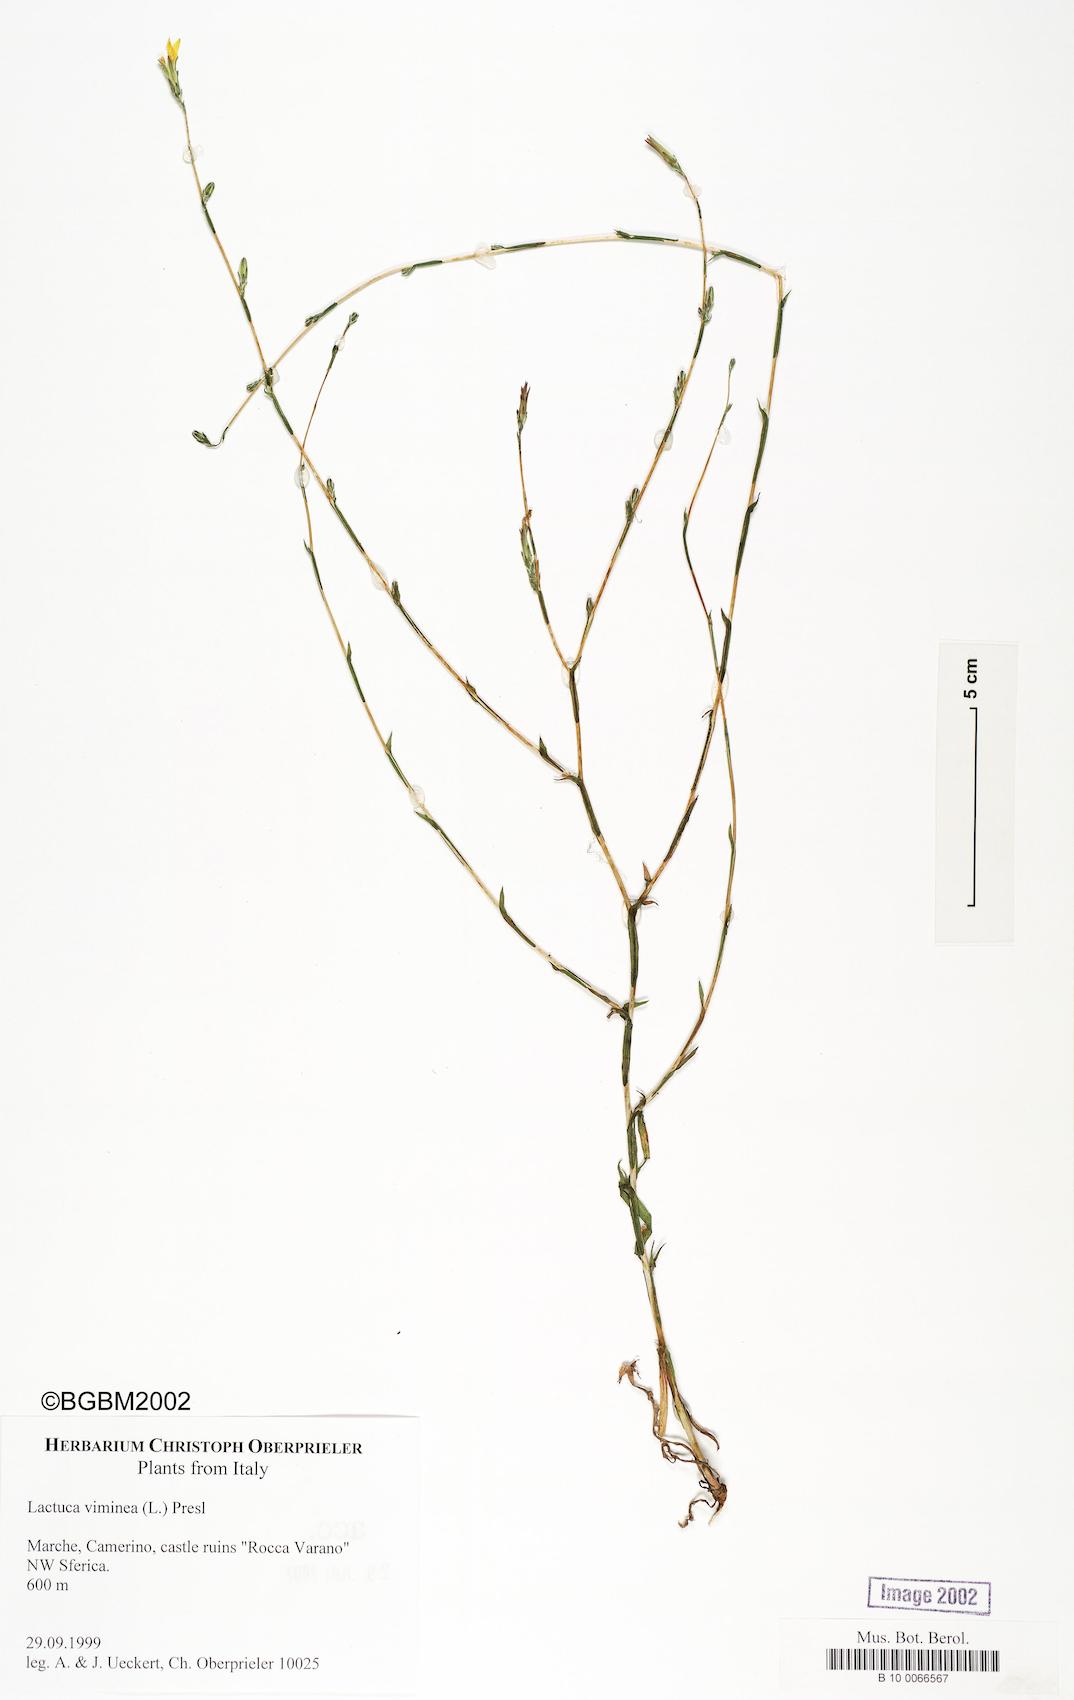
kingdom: Plantae
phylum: Tracheophyta
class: Magnoliopsida
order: Asterales
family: Asteraceae
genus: Lactuca
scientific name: Lactuca viminea
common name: Pliant lettuce
